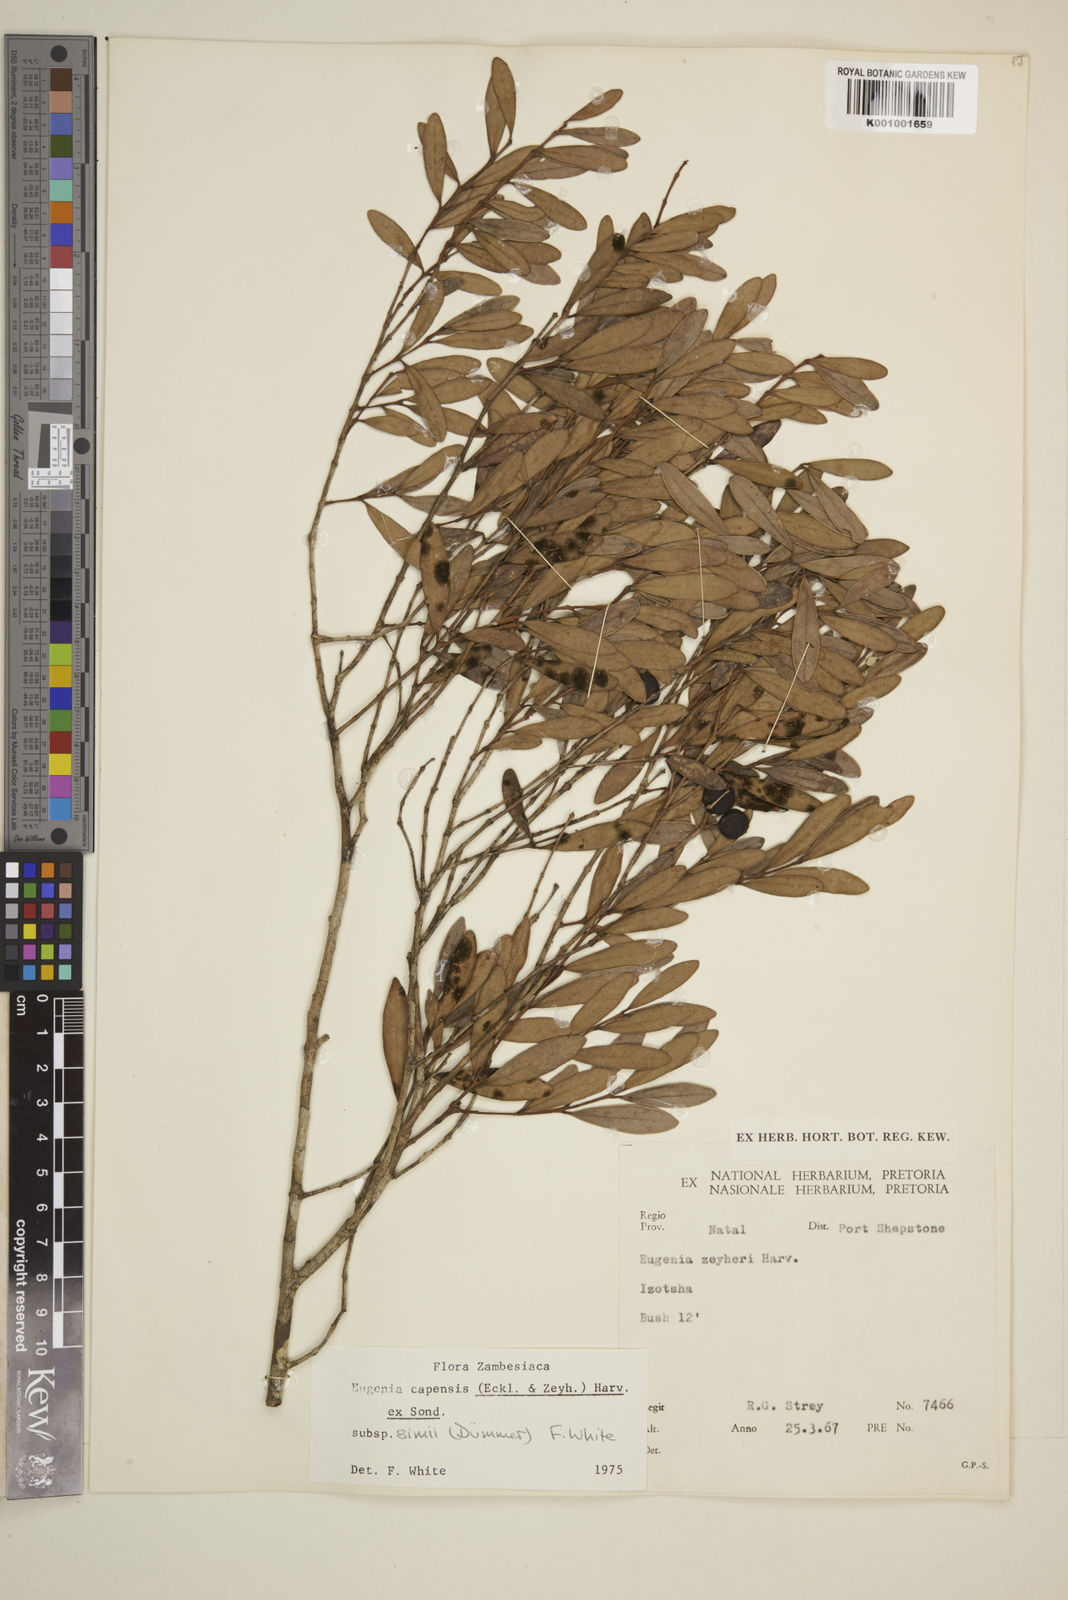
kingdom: Plantae
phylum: Tracheophyta
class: Magnoliopsida
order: Myrtales
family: Myrtaceae
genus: Eugenia
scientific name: Eugenia simii
